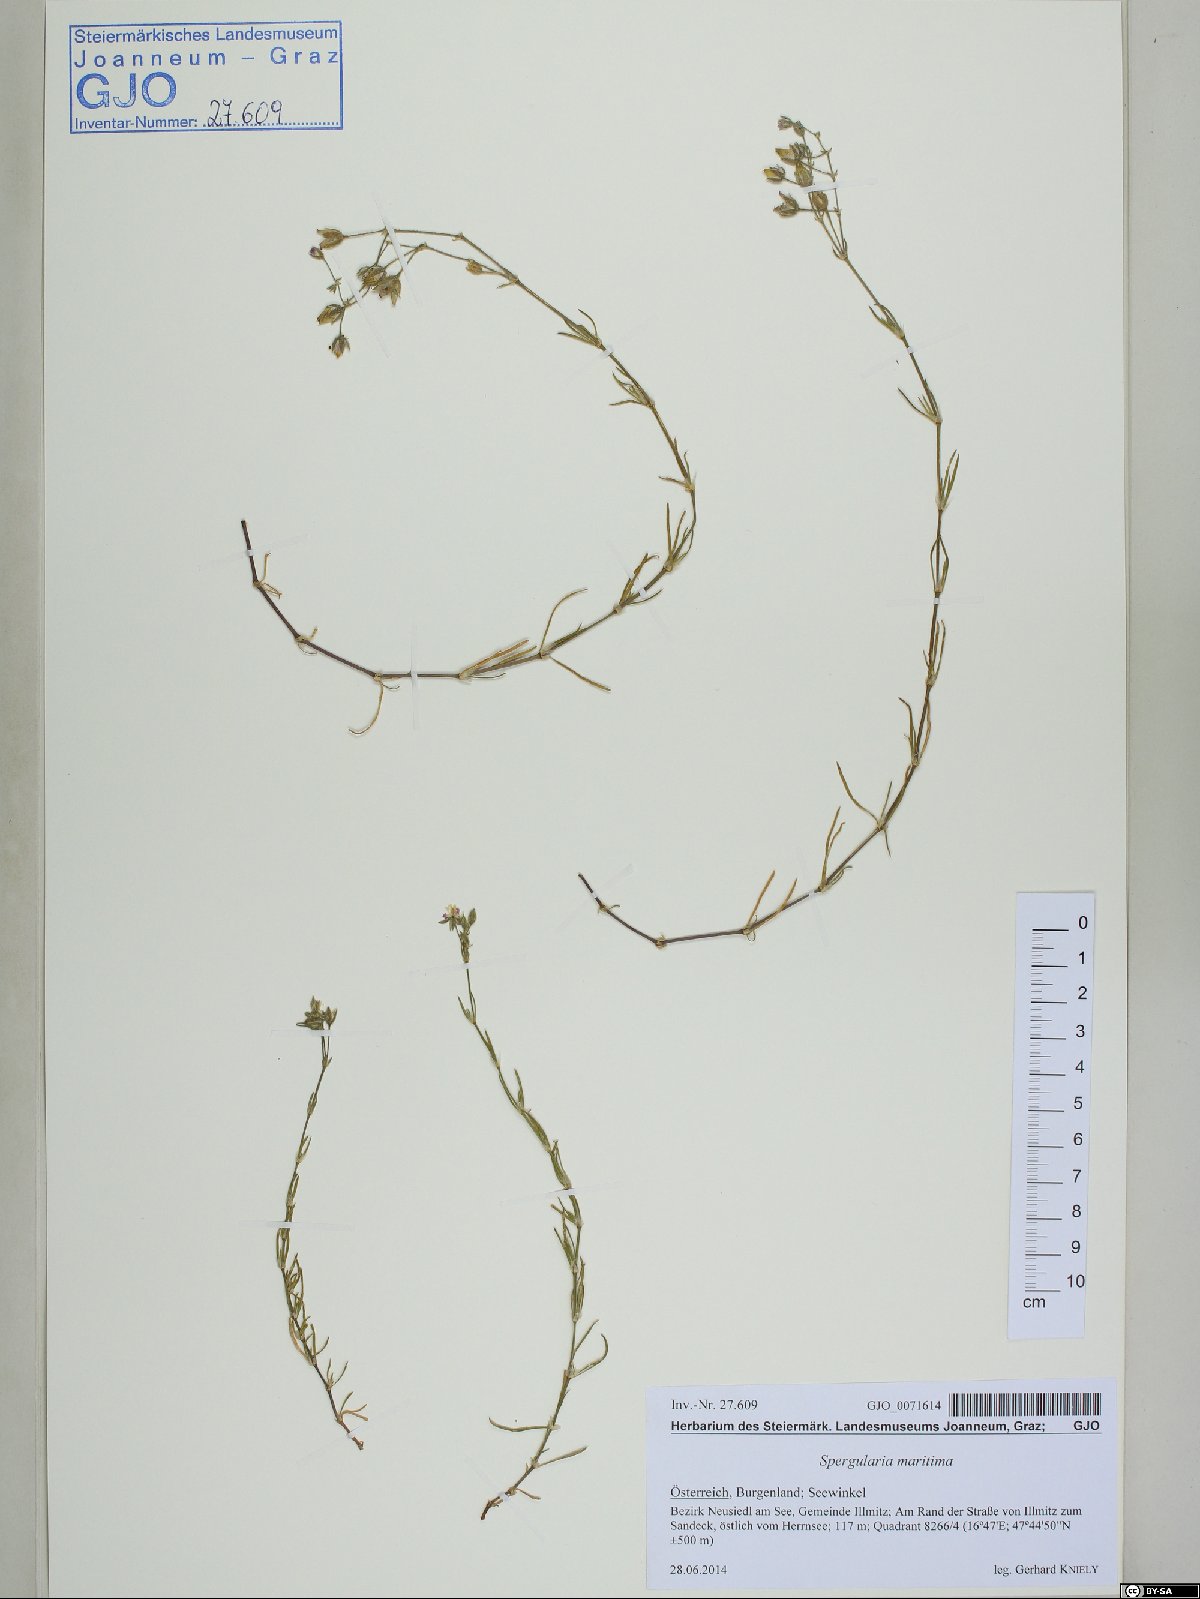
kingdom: Plantae
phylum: Tracheophyta
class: Magnoliopsida
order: Caryophyllales
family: Caryophyllaceae
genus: Spergularia
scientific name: Spergularia media
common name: Greater sea-spurrey
